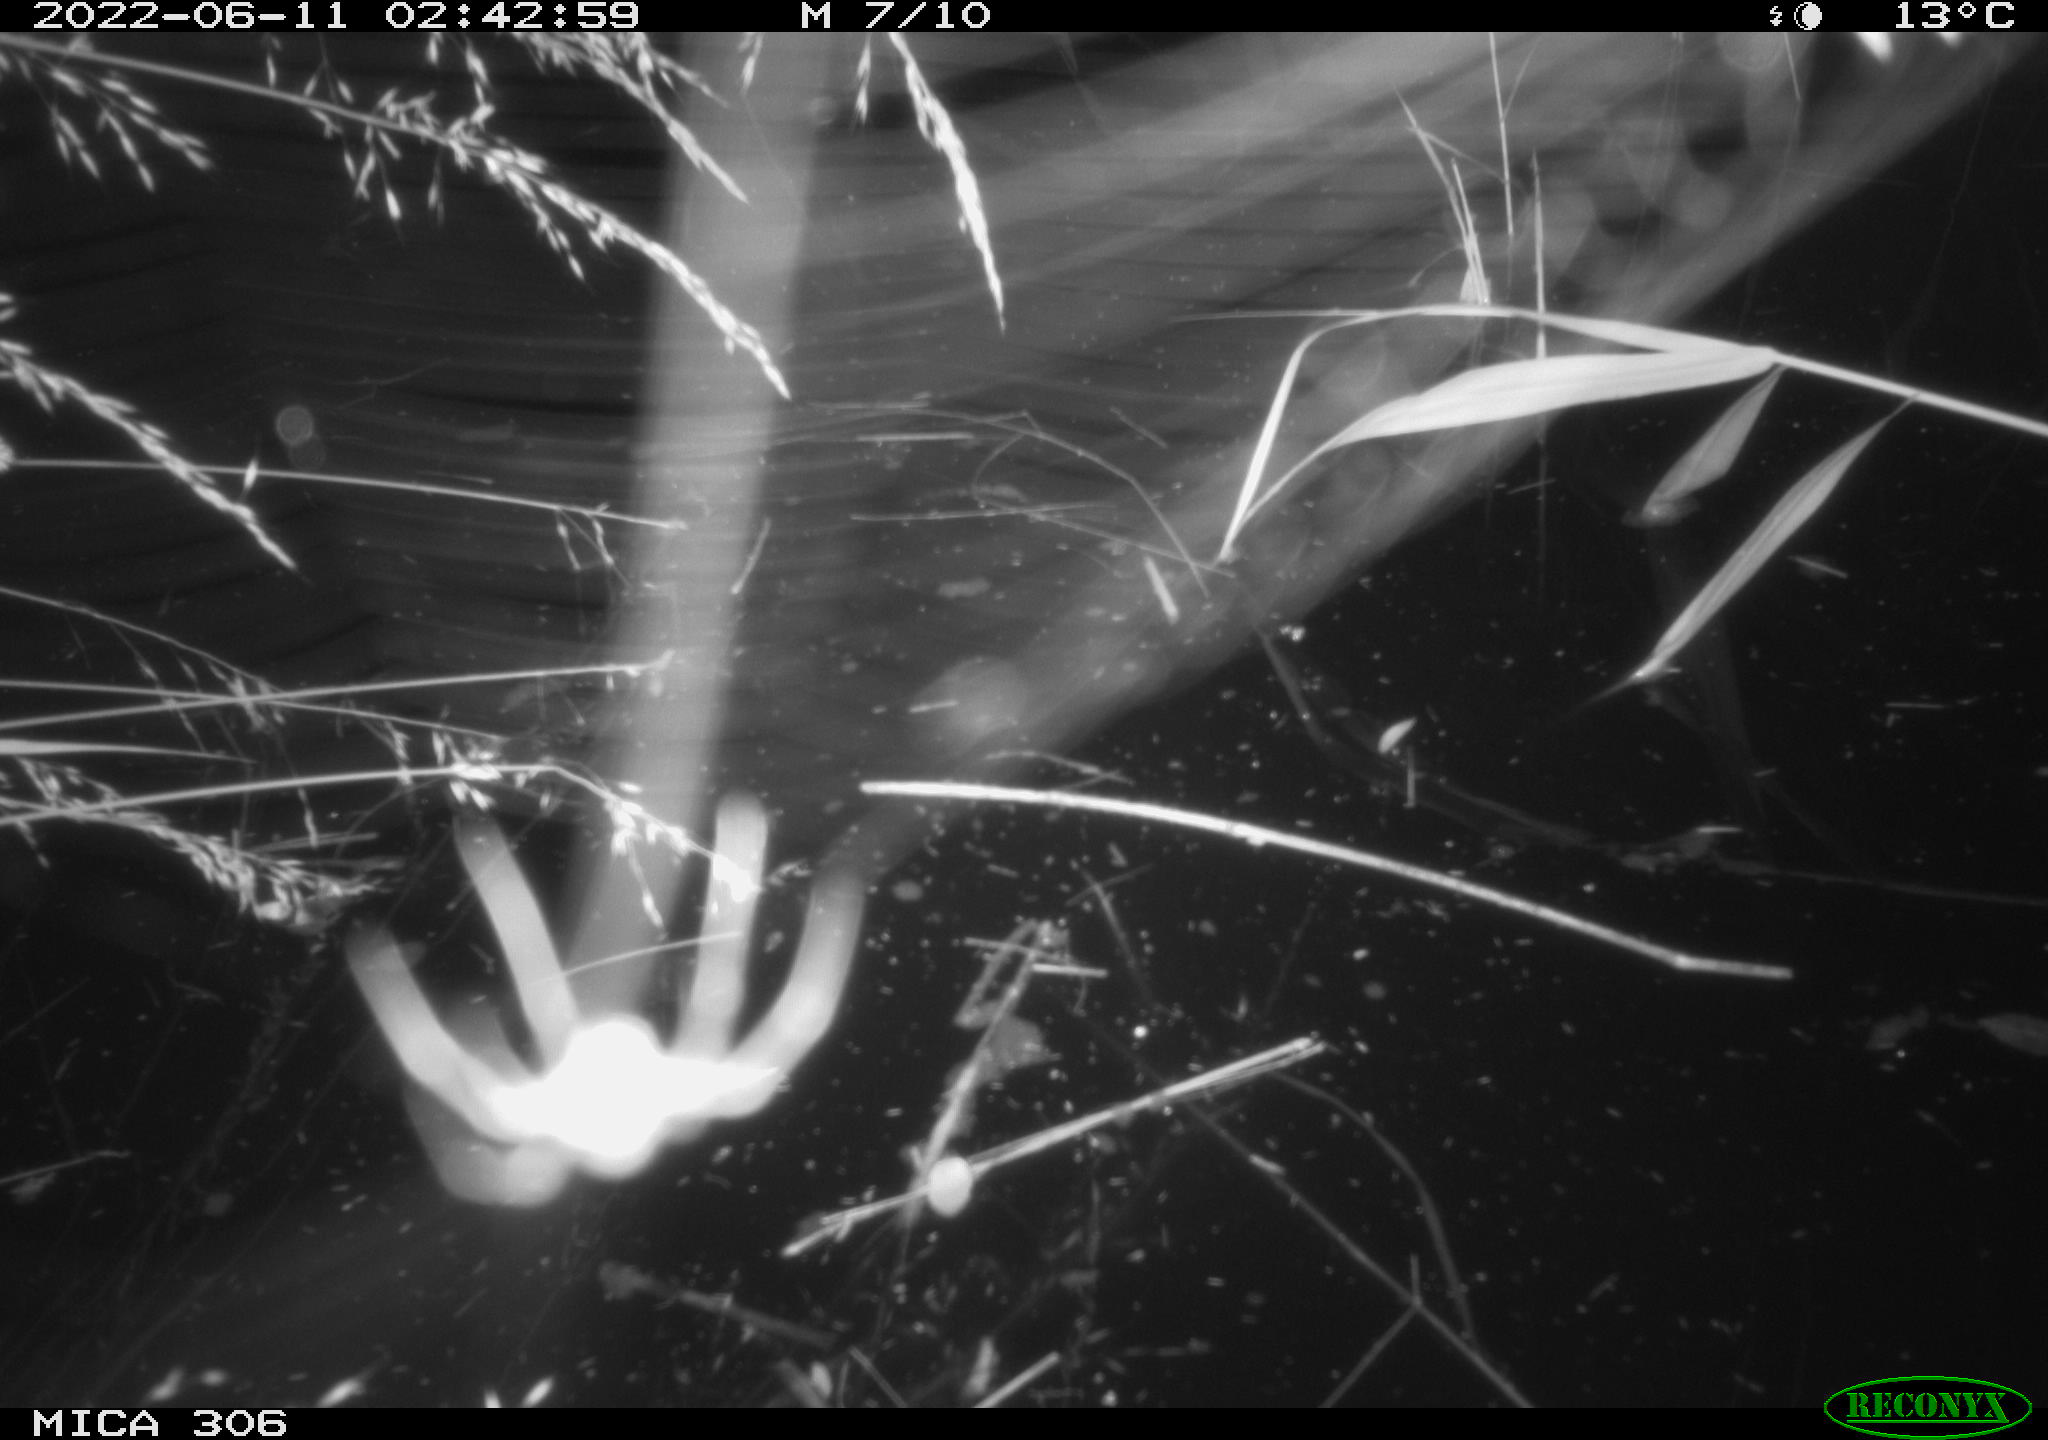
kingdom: Animalia
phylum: Chordata
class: Aves
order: Anseriformes
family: Anatidae
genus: Anas
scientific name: Anas platyrhynchos
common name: Mallard
